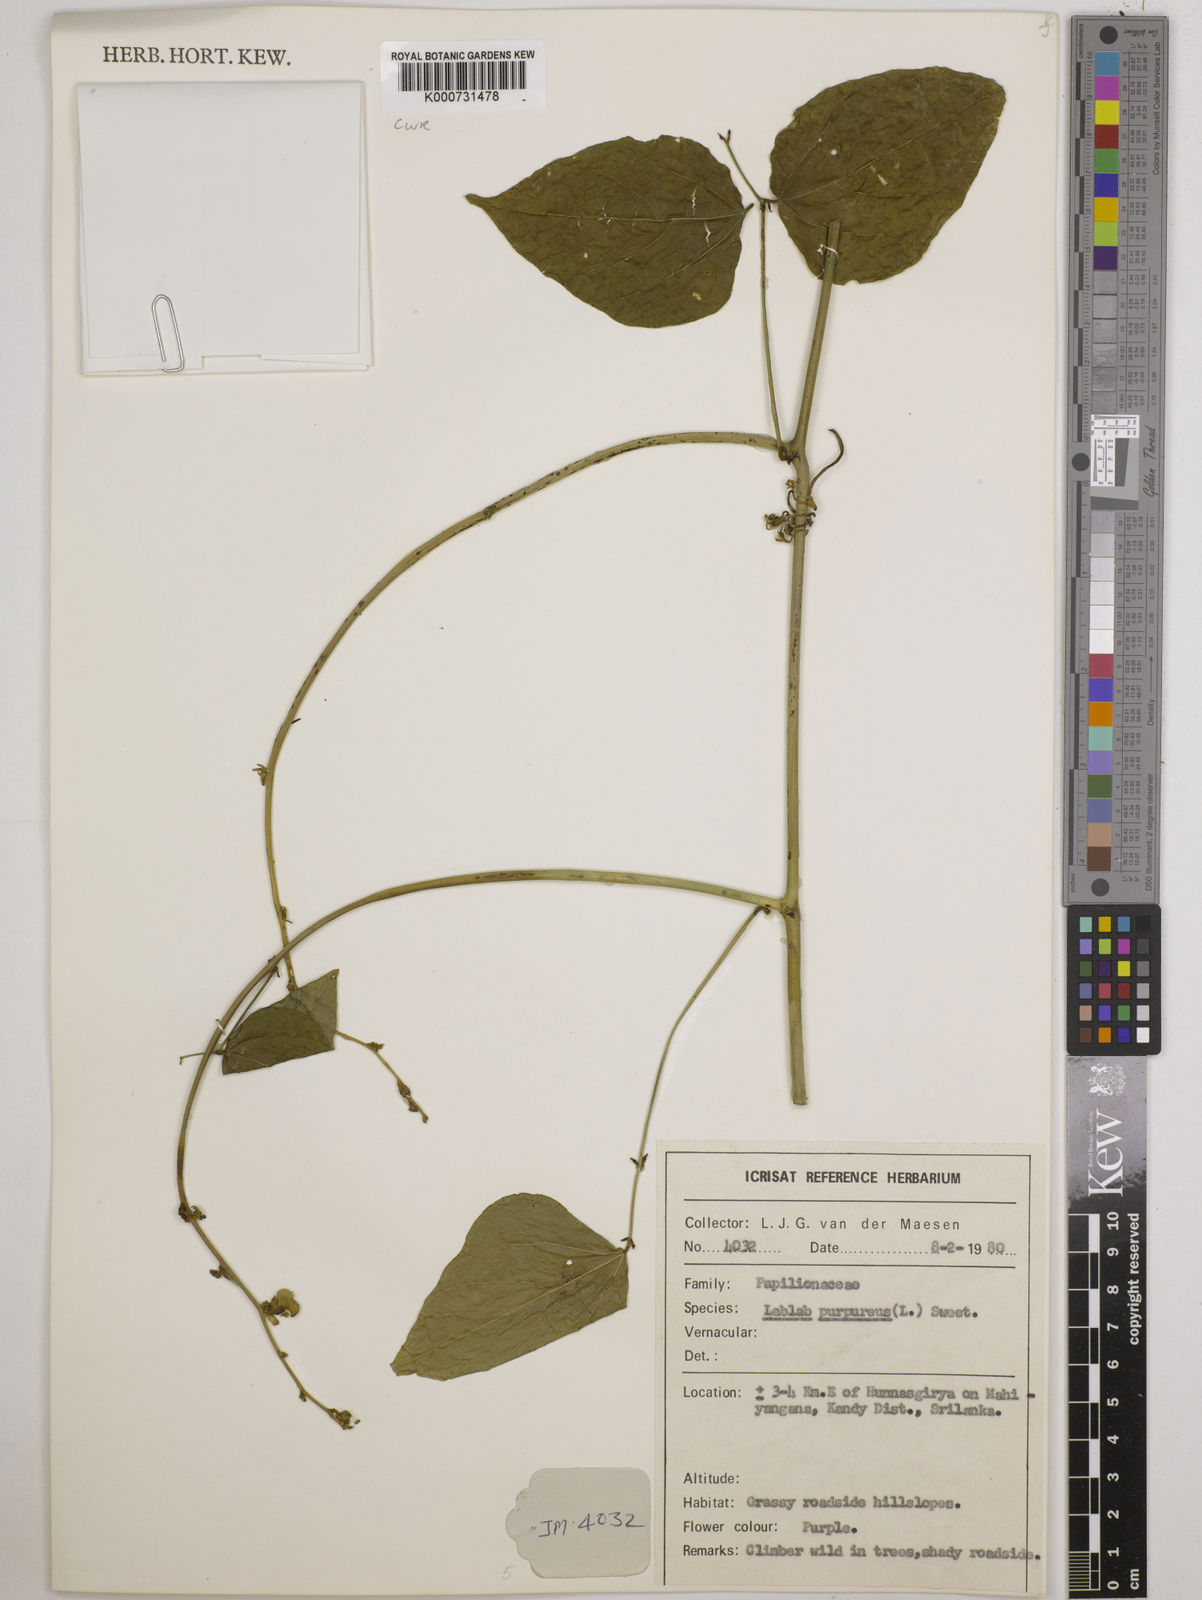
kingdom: Plantae
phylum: Tracheophyta
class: Magnoliopsida
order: Fabales
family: Fabaceae
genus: Lablab
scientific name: Lablab purpureus
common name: Lablab-bean
